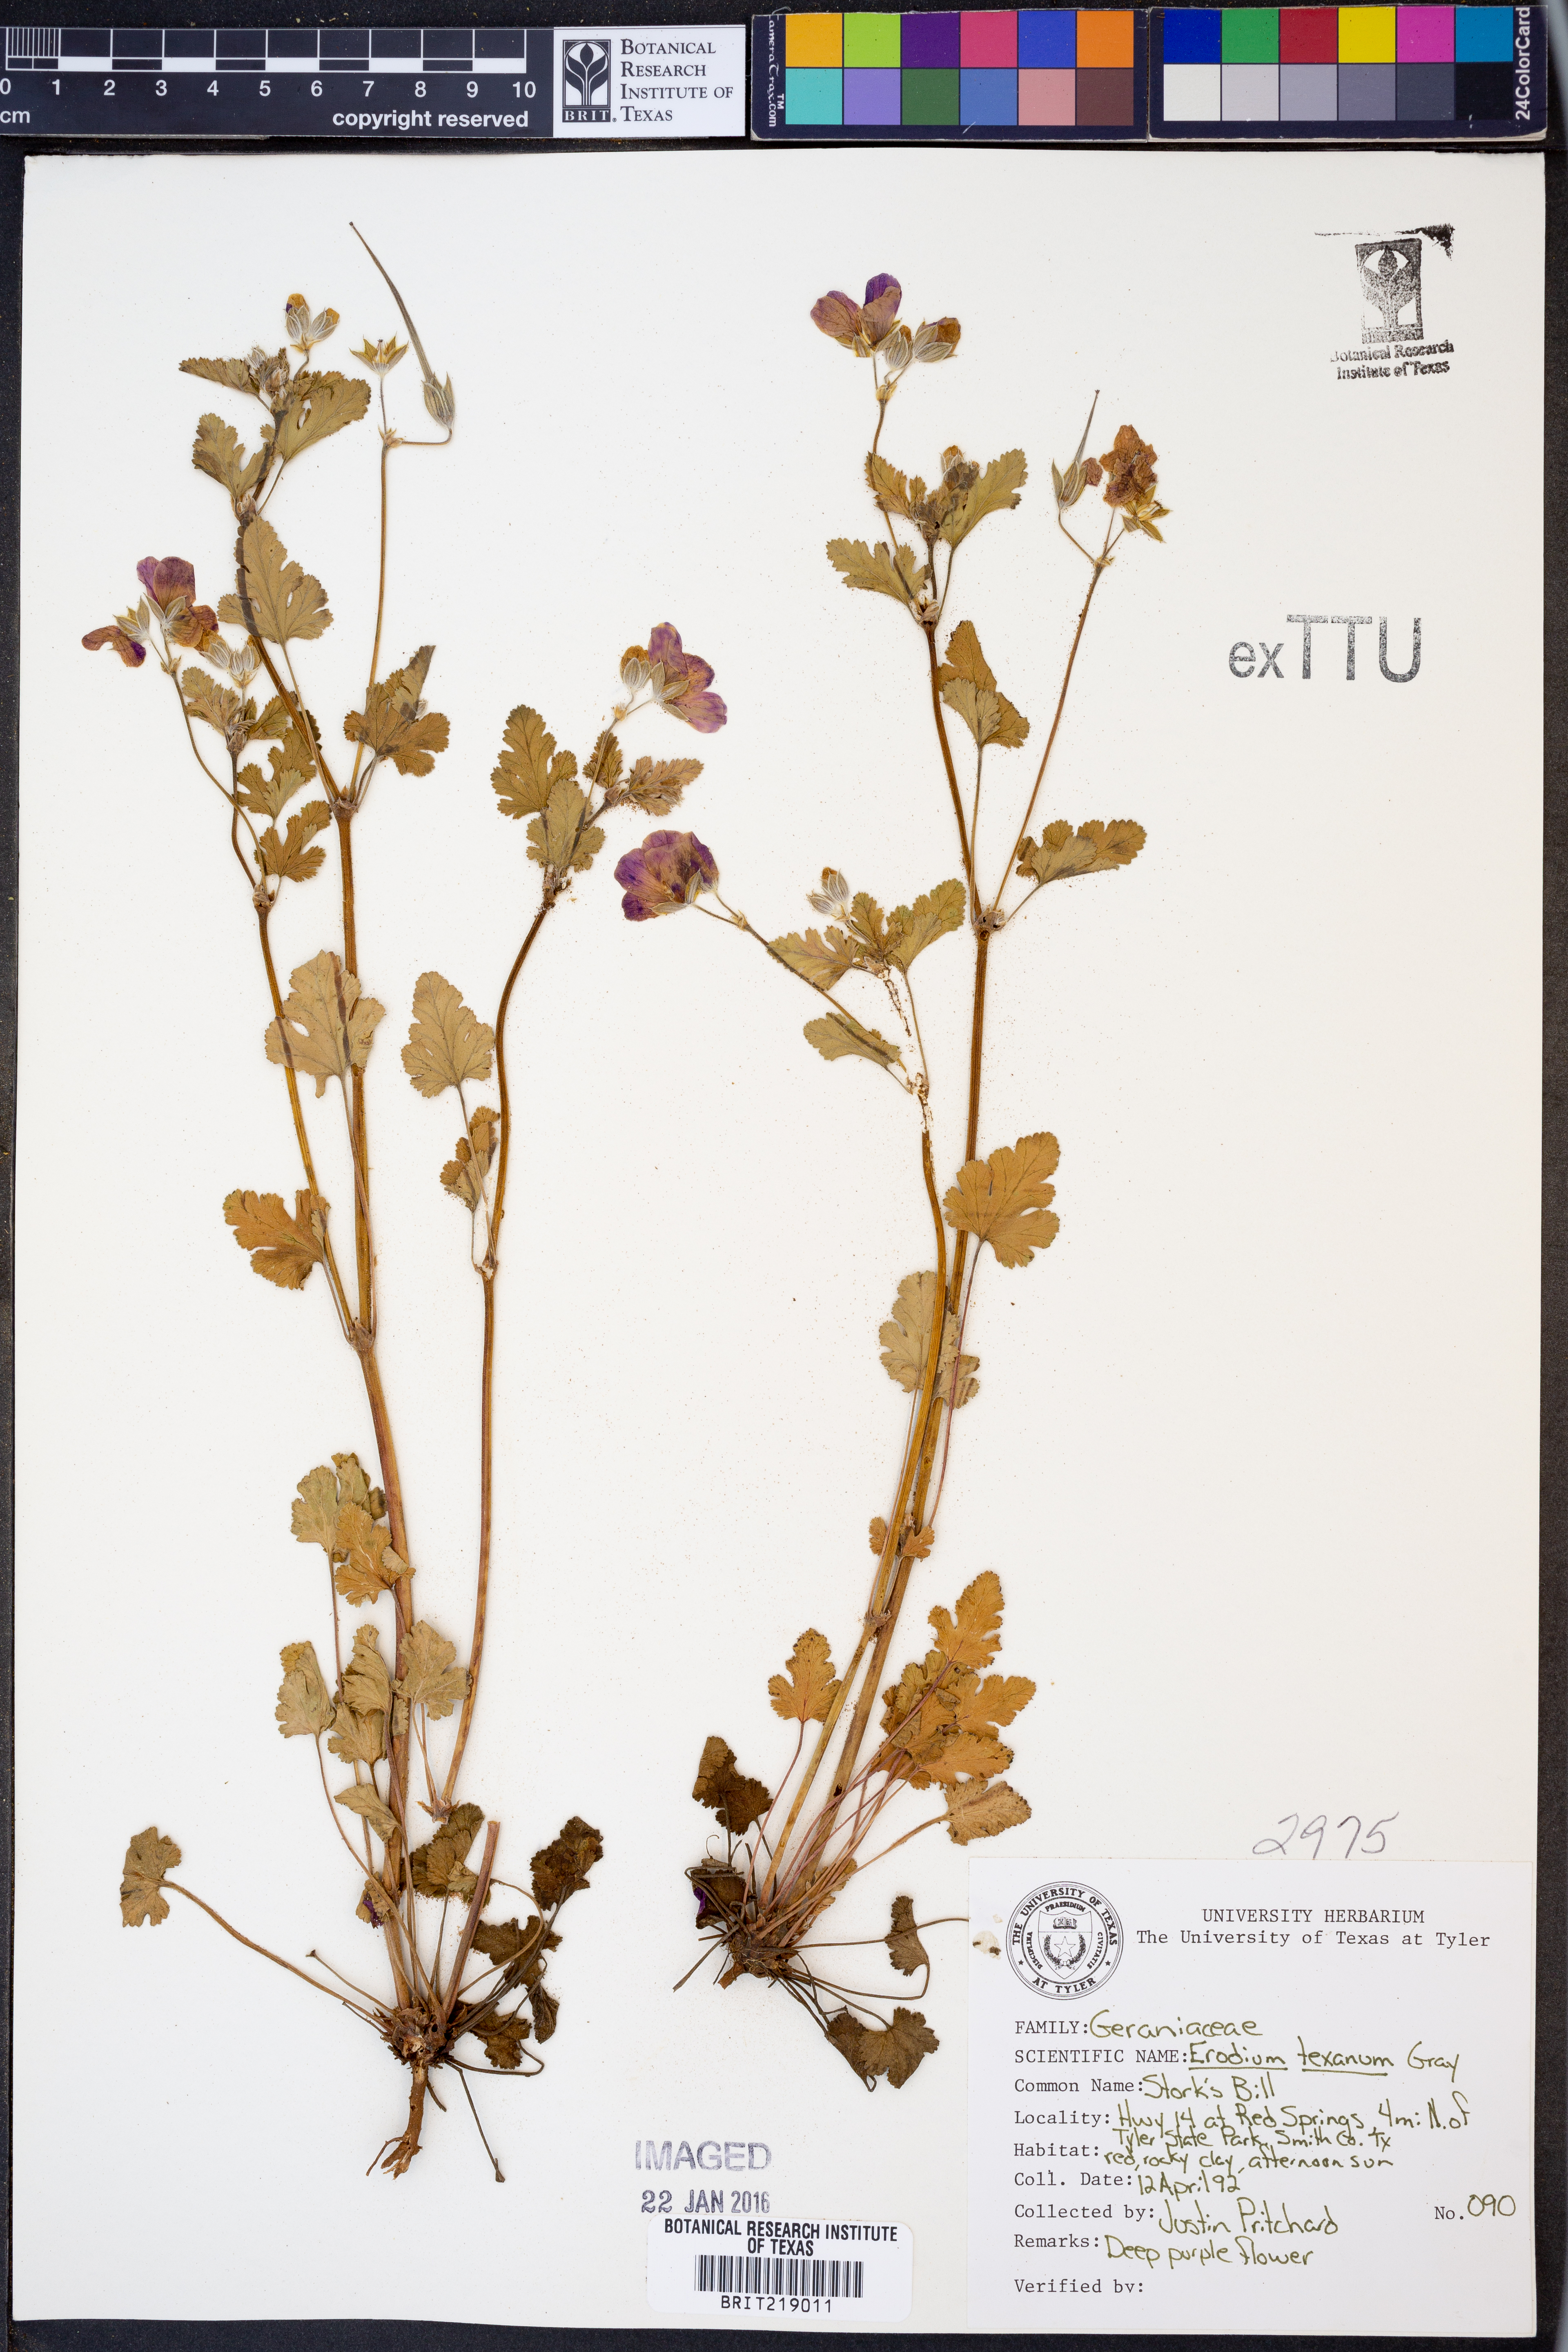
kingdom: Plantae
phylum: Tracheophyta
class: Magnoliopsida
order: Geraniales
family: Geraniaceae
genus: Erodium
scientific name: Erodium texanum
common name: Texas stork's-bill
